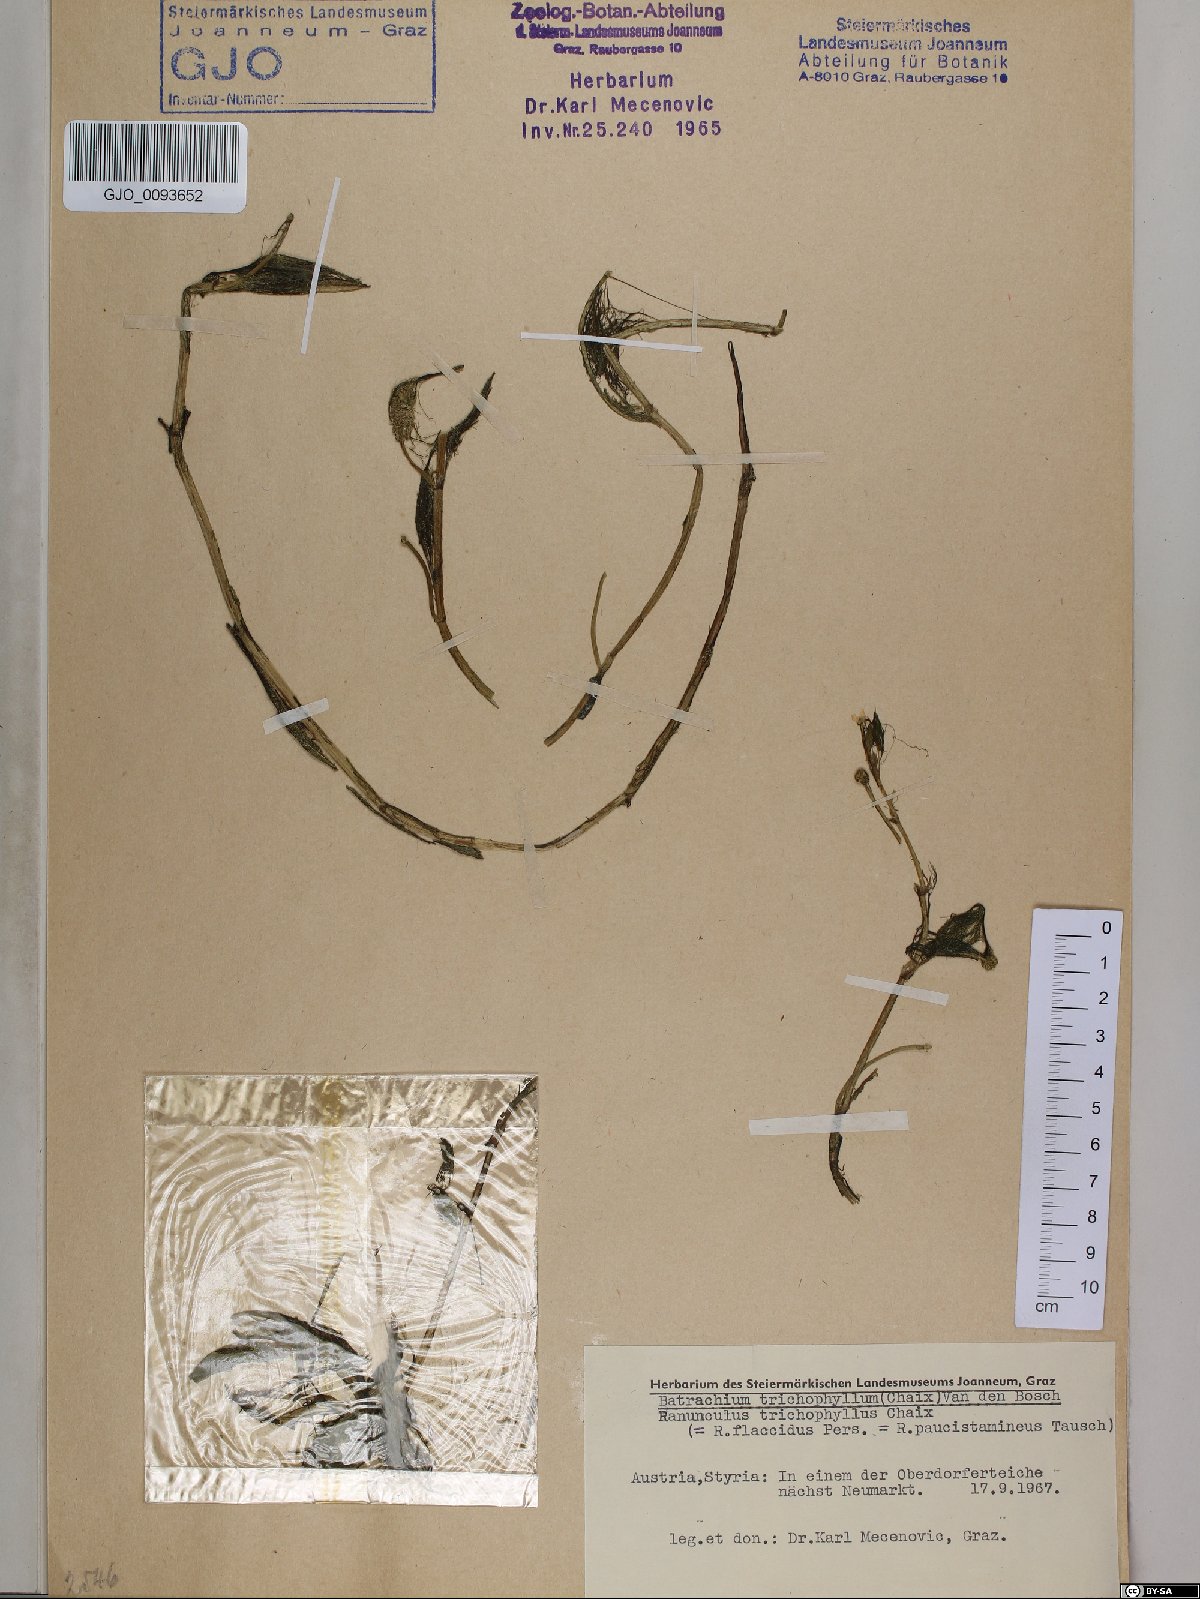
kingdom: Plantae
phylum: Tracheophyta
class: Magnoliopsida
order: Ranunculales
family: Ranunculaceae
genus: Ranunculus
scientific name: Ranunculus trichophyllus
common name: Thread-leaved water-crowfoot
